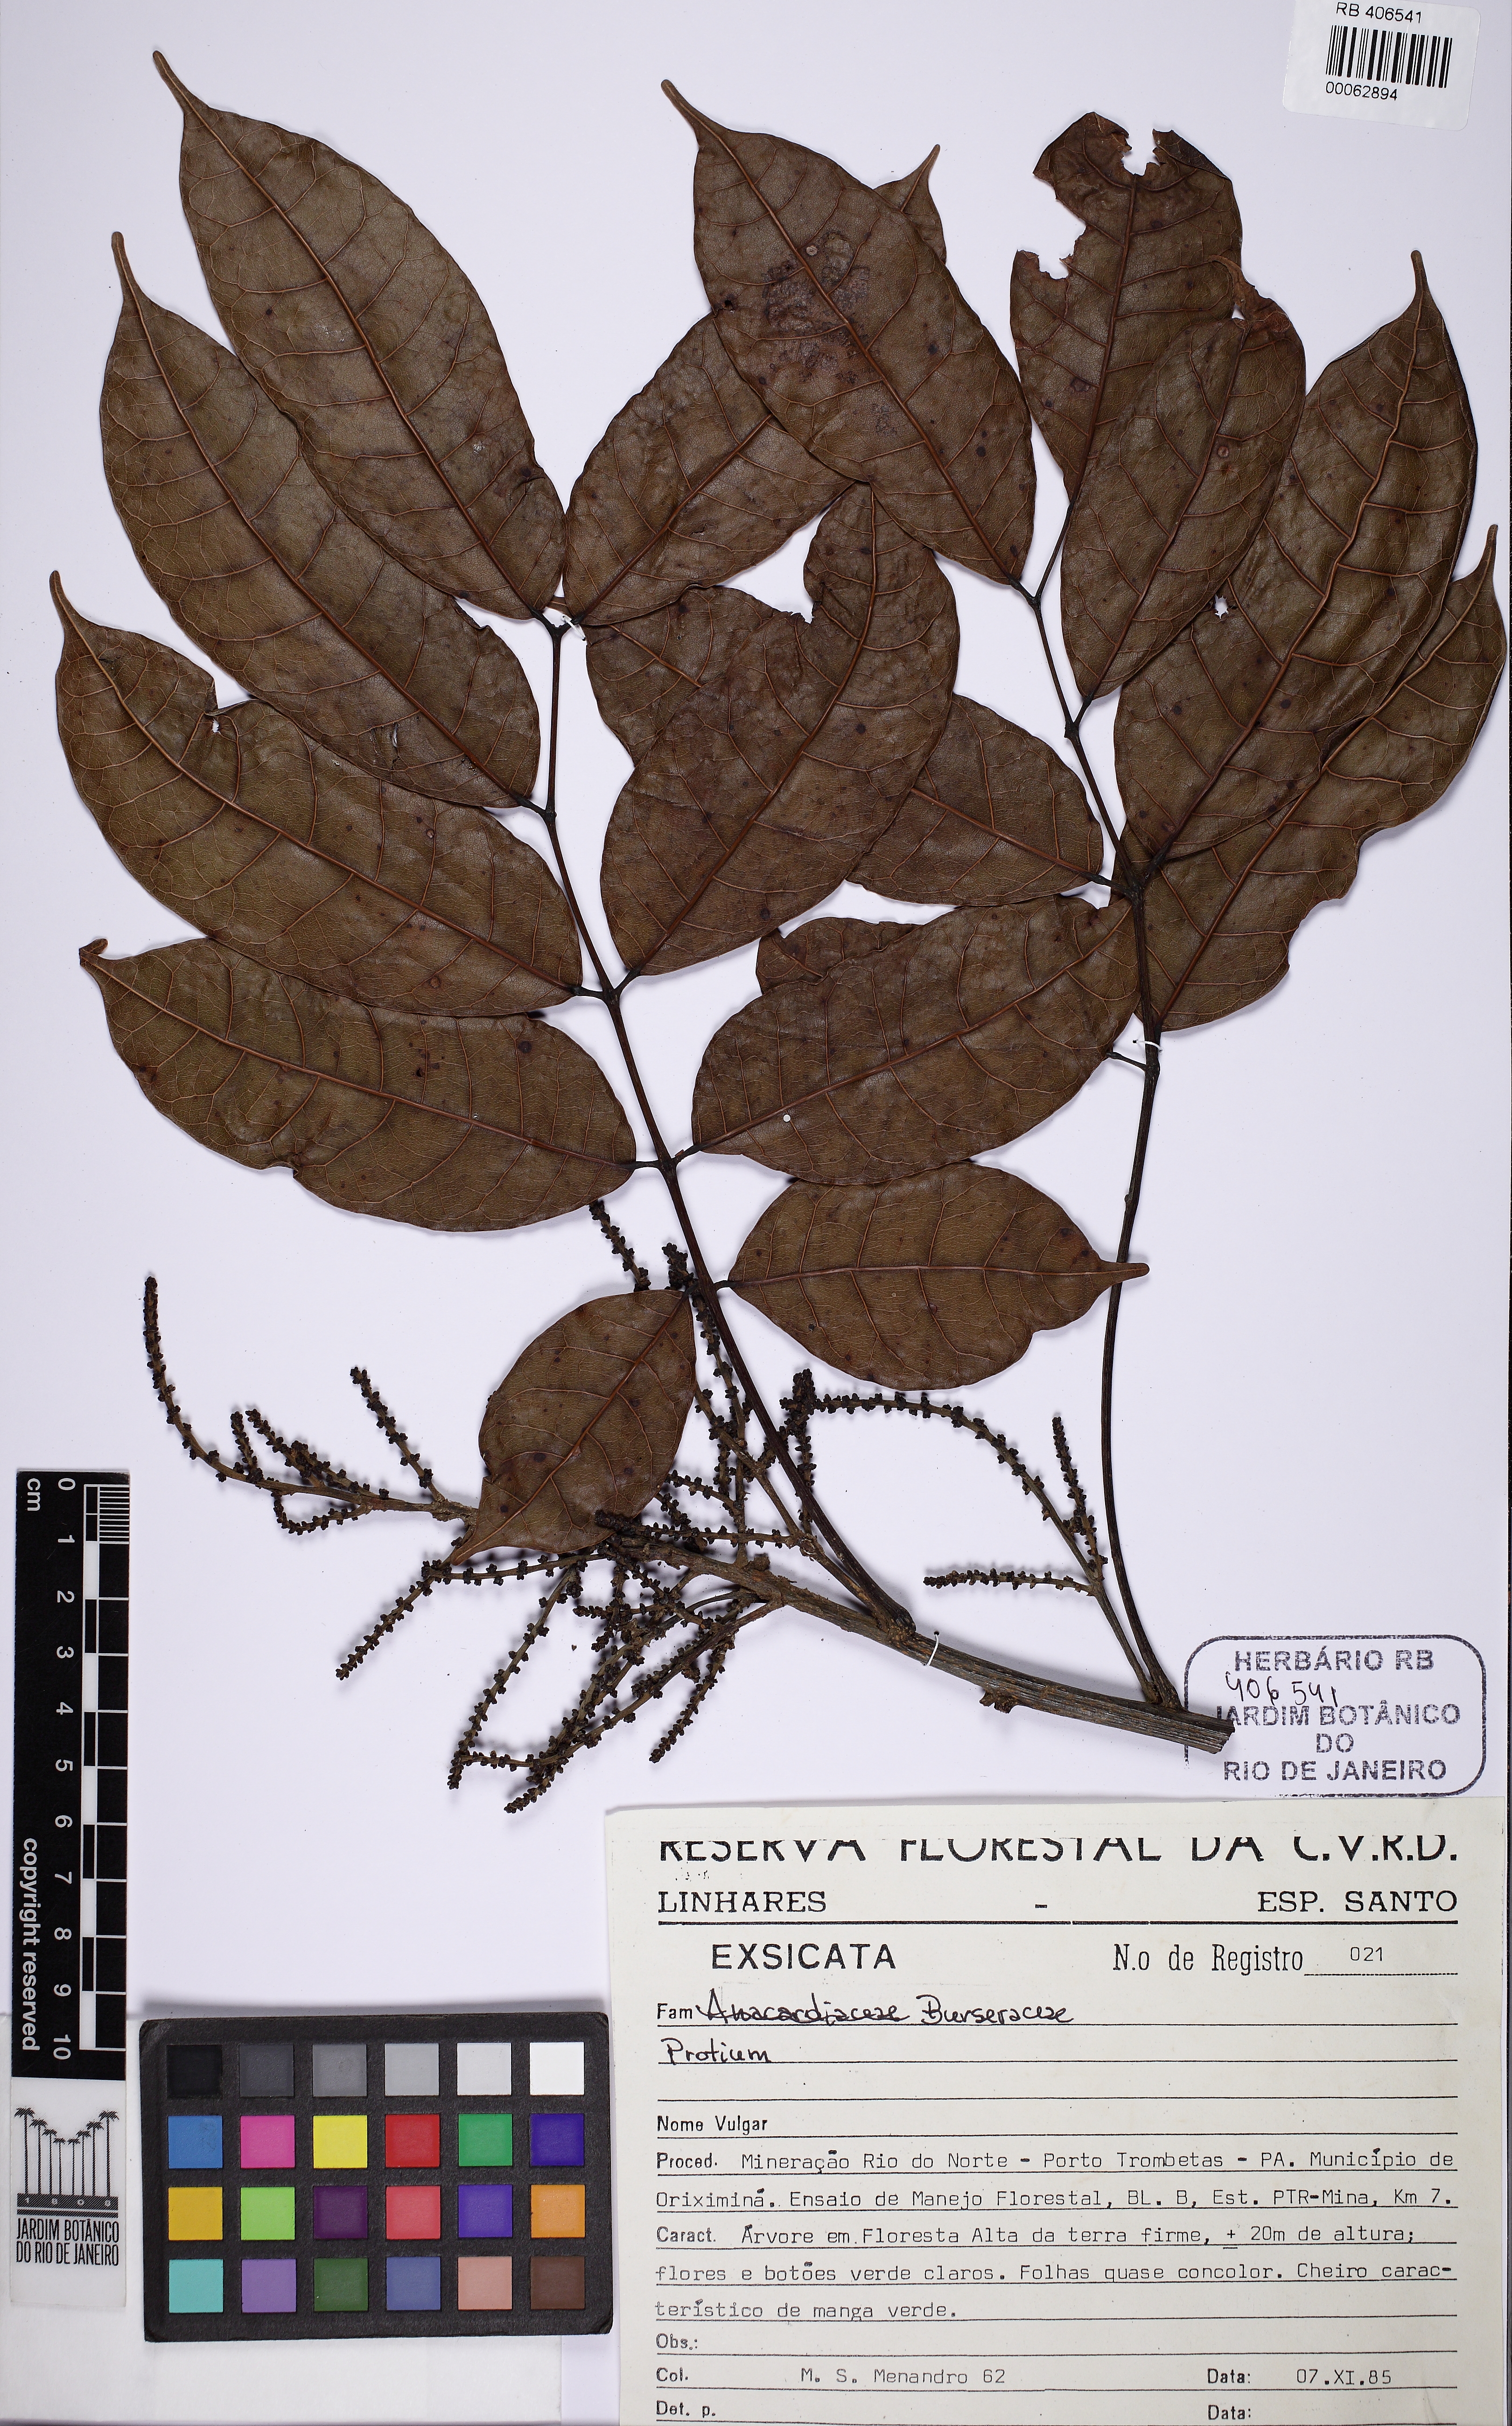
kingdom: Plantae
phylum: Tracheophyta
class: Magnoliopsida
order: Sapindales
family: Burseraceae
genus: Protium
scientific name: Protium tenuifolium
